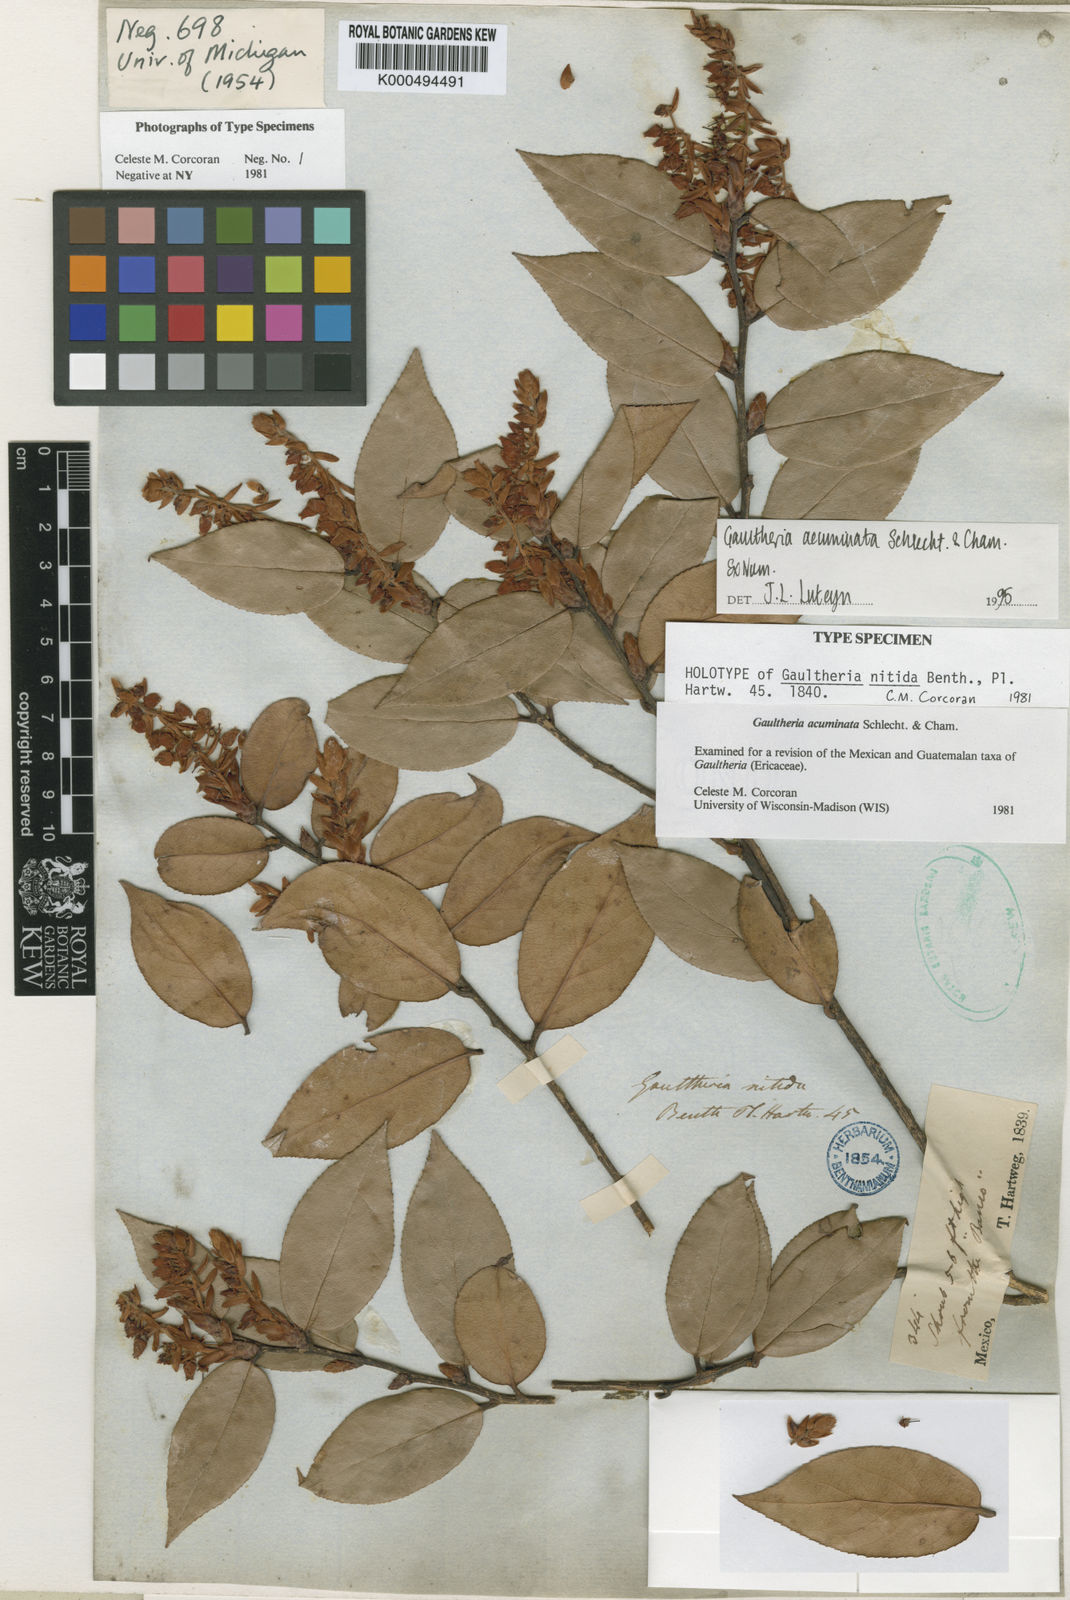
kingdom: Plantae
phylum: Tracheophyta
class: Magnoliopsida
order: Ericales
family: Ericaceae
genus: Gaultheria
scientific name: Gaultheria acuminata
